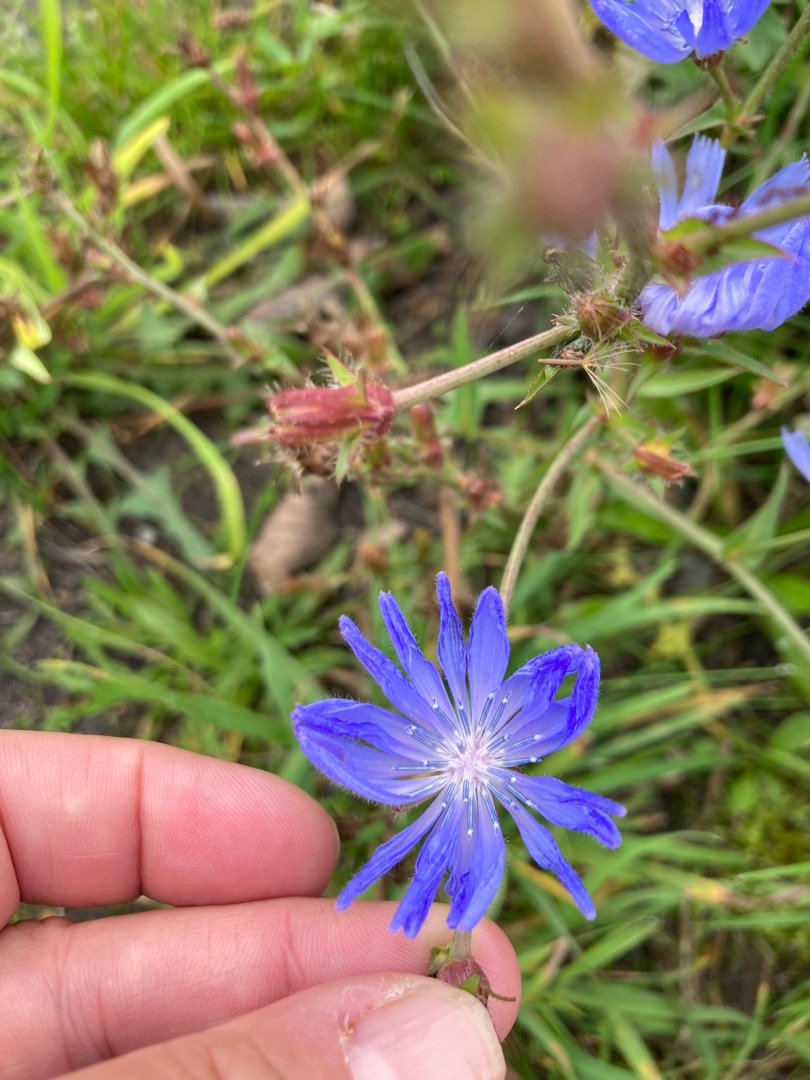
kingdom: Plantae
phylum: Tracheophyta
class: Magnoliopsida
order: Asterales
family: Asteraceae
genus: Cichorium
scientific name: Cichorium intybus
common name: Cikorie
